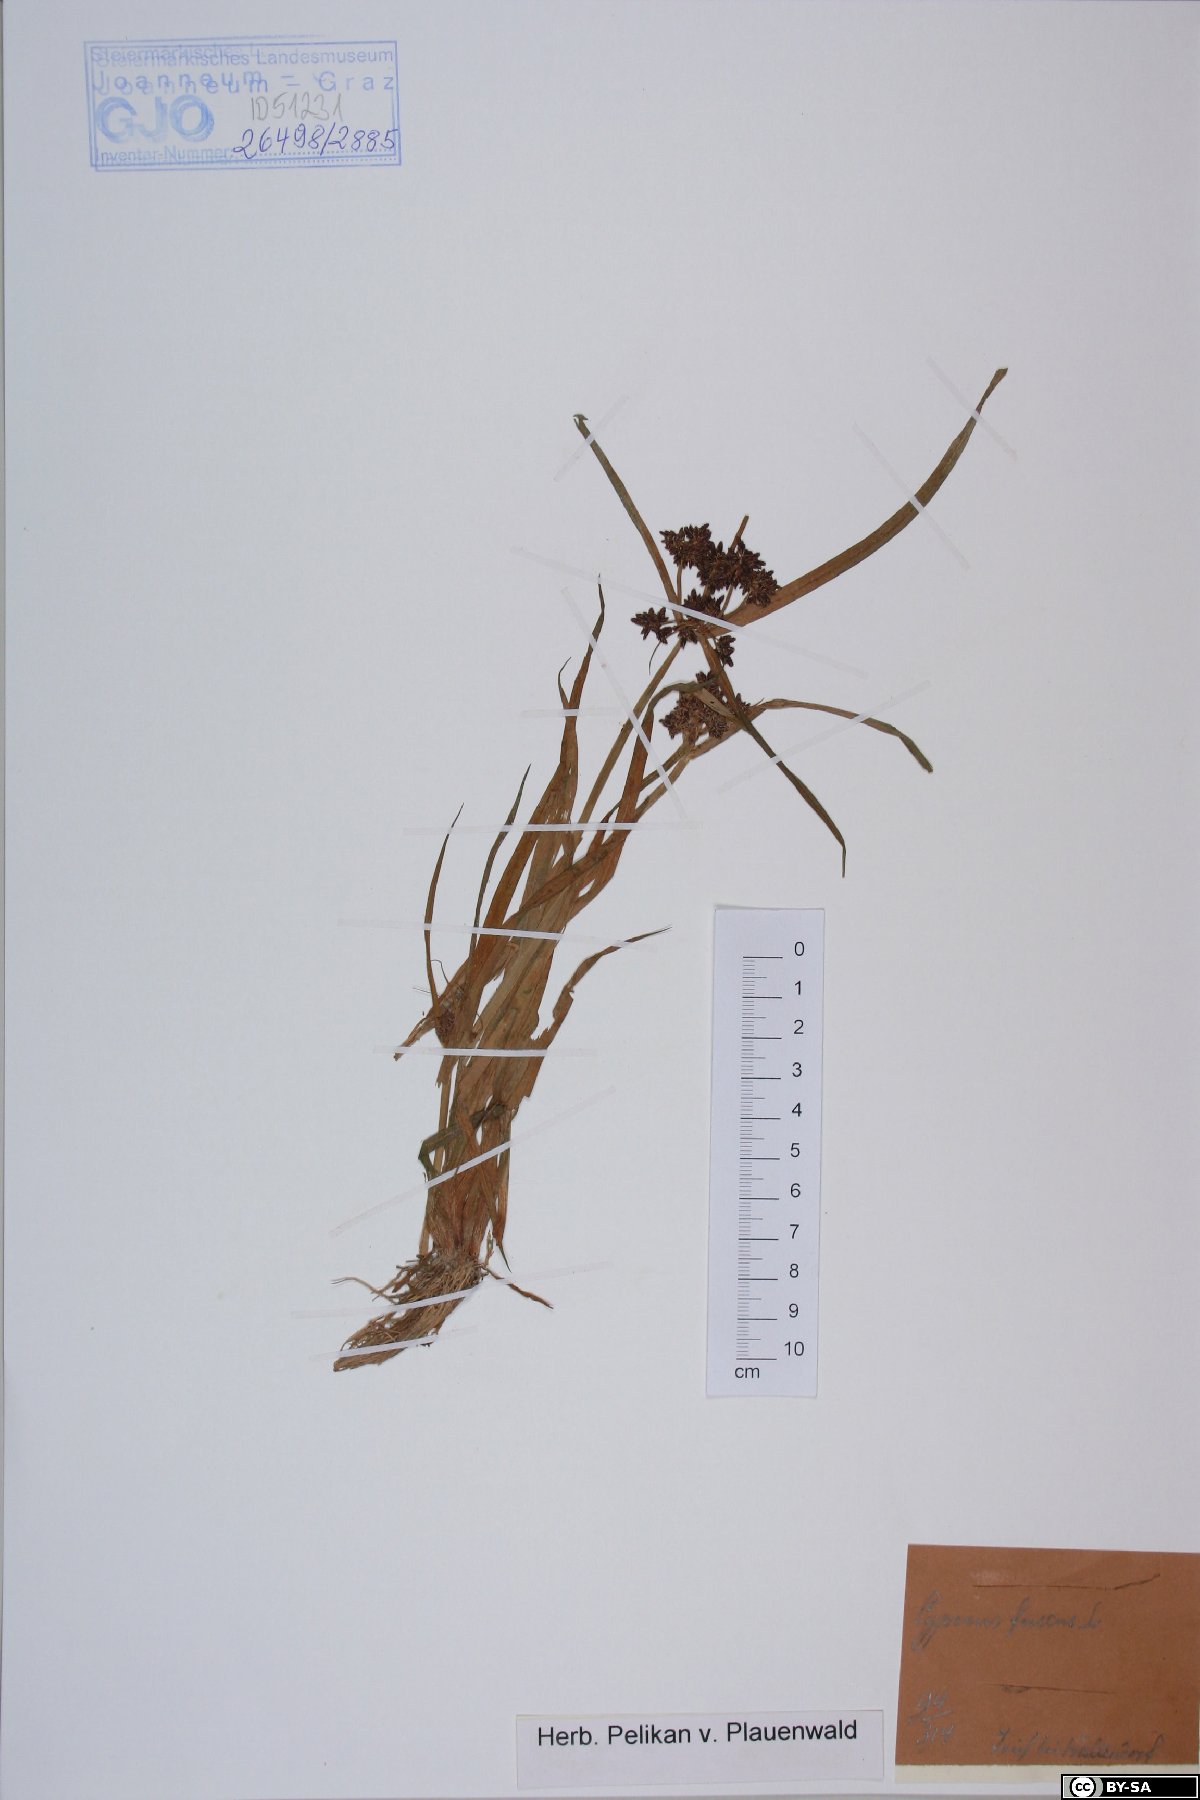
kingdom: Plantae
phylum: Tracheophyta
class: Liliopsida
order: Poales
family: Cyperaceae
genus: Cyperus
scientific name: Cyperus fuscus
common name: Brown galingale
